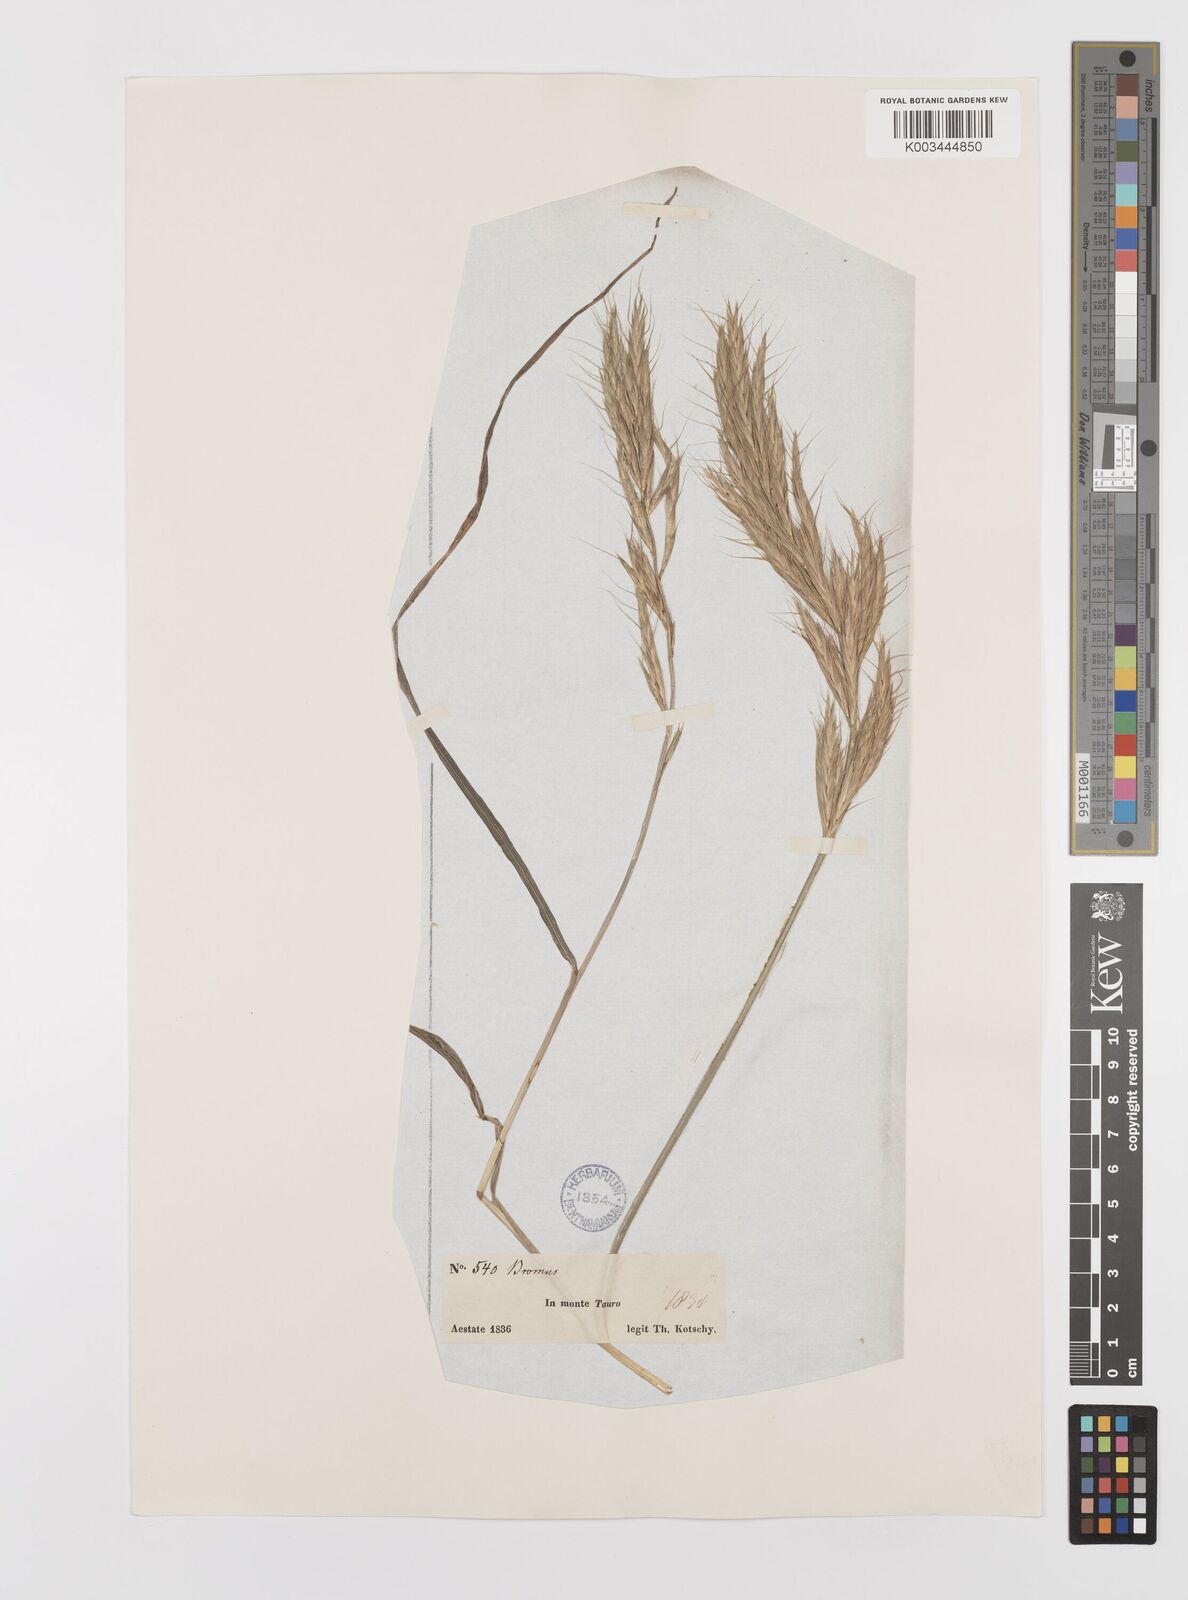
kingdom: Plantae
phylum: Tracheophyta
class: Liliopsida
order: Poales
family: Poaceae
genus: Bromus
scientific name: Bromus lanceolatus
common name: Mediterranean brome
